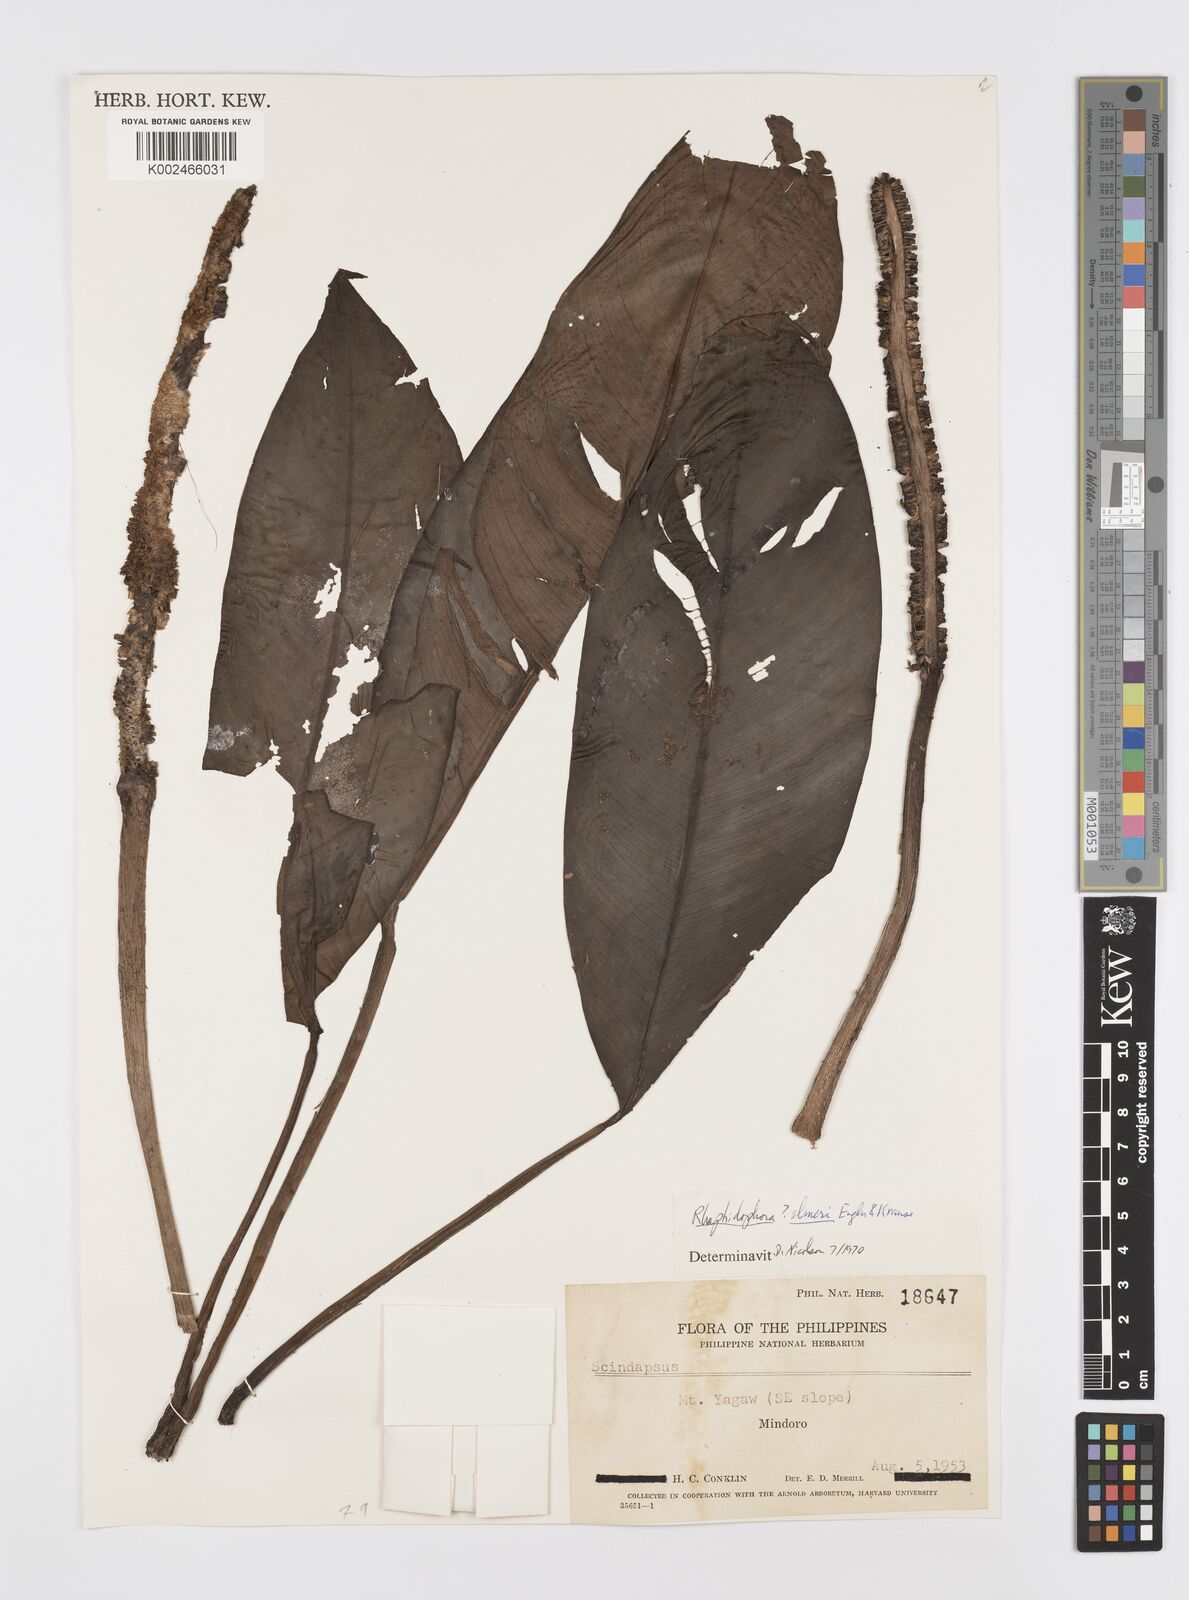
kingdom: Plantae
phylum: Tracheophyta
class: Liliopsida
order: Alismatales
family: Araceae
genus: Rhaphidophora
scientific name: Rhaphidophora elmeri
